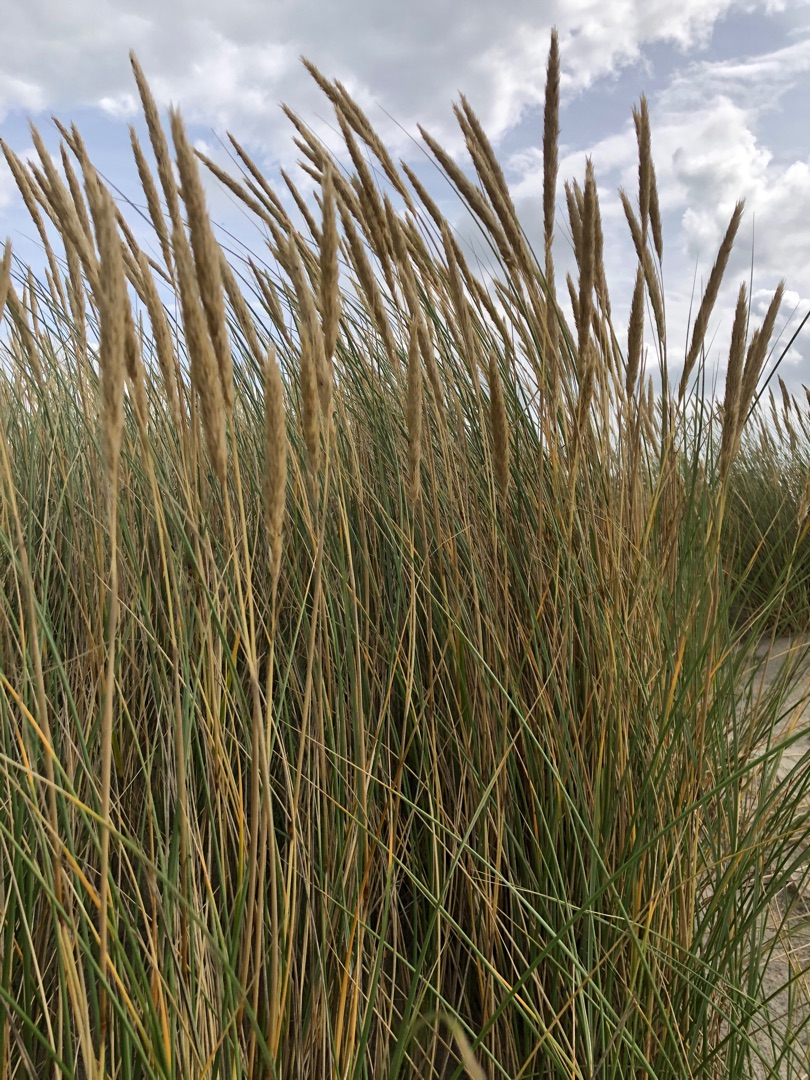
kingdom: Plantae
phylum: Tracheophyta
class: Liliopsida
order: Poales
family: Poaceae
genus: Calamagrostis
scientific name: Calamagrostis arenaria
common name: Sand-hjælme
